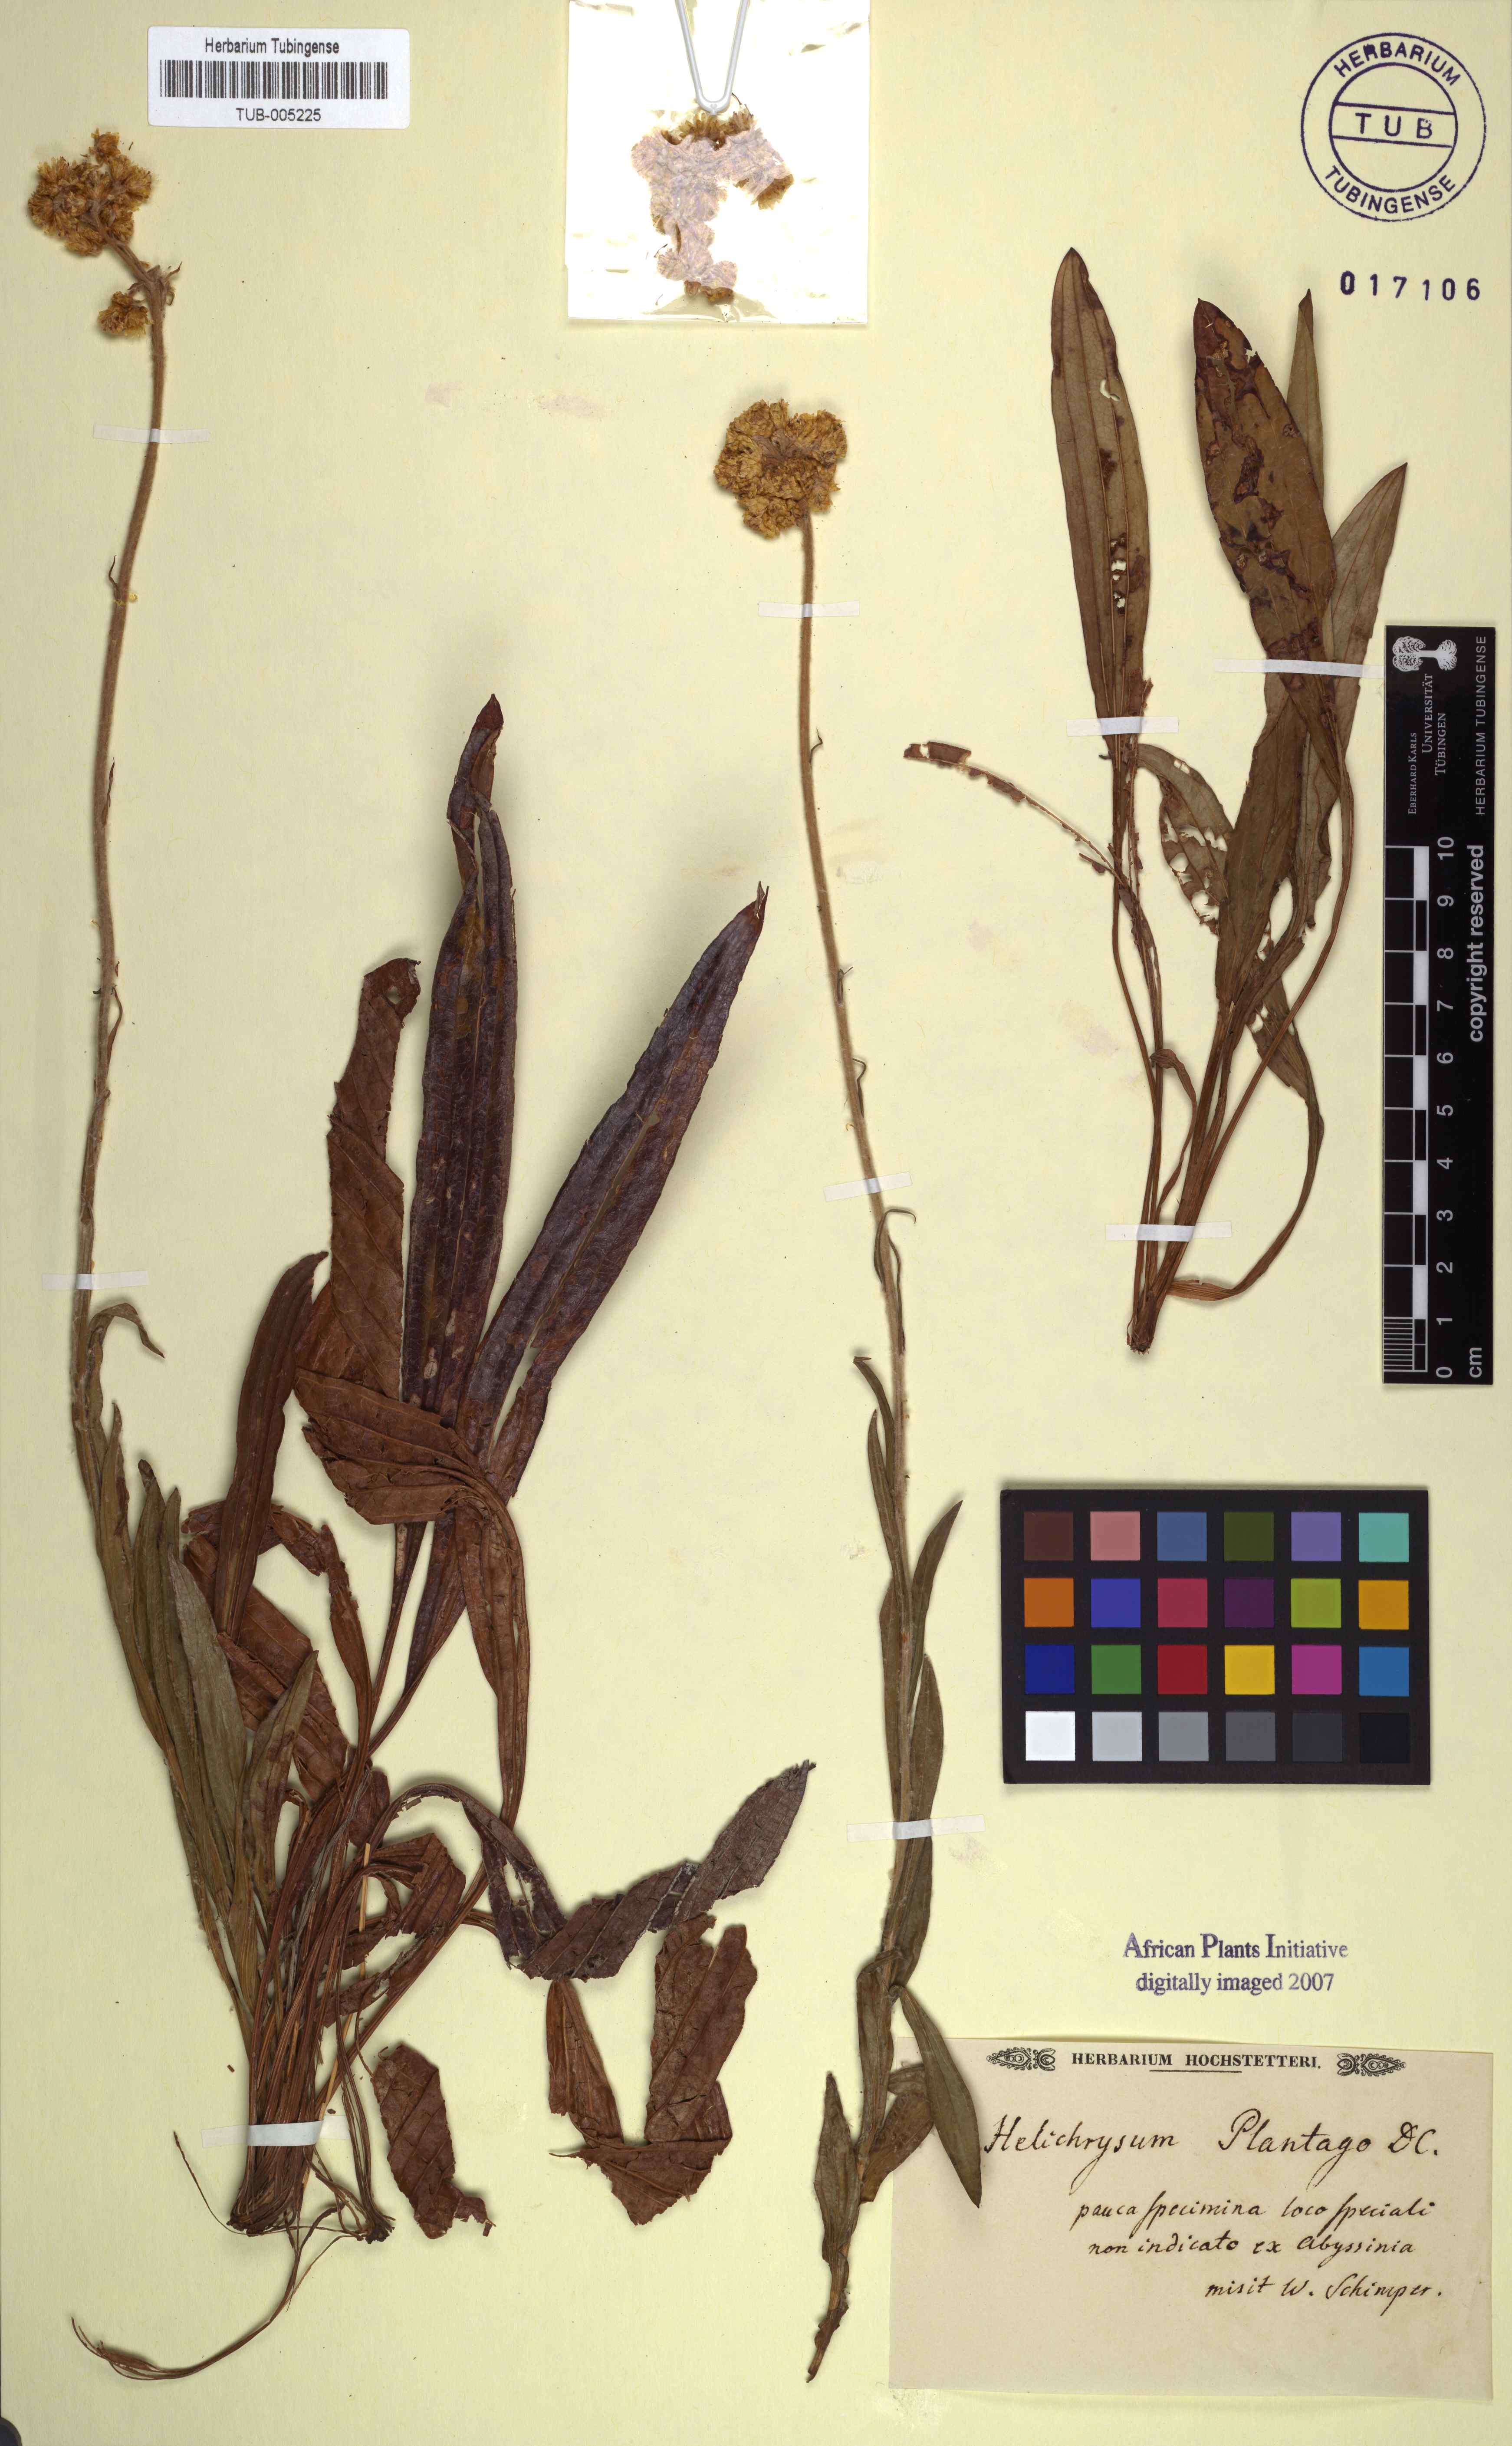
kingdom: Plantae
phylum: Tracheophyta
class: Magnoliopsida
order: Asterales
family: Asteraceae
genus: Helichrysum
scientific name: Helichrysum plantago
